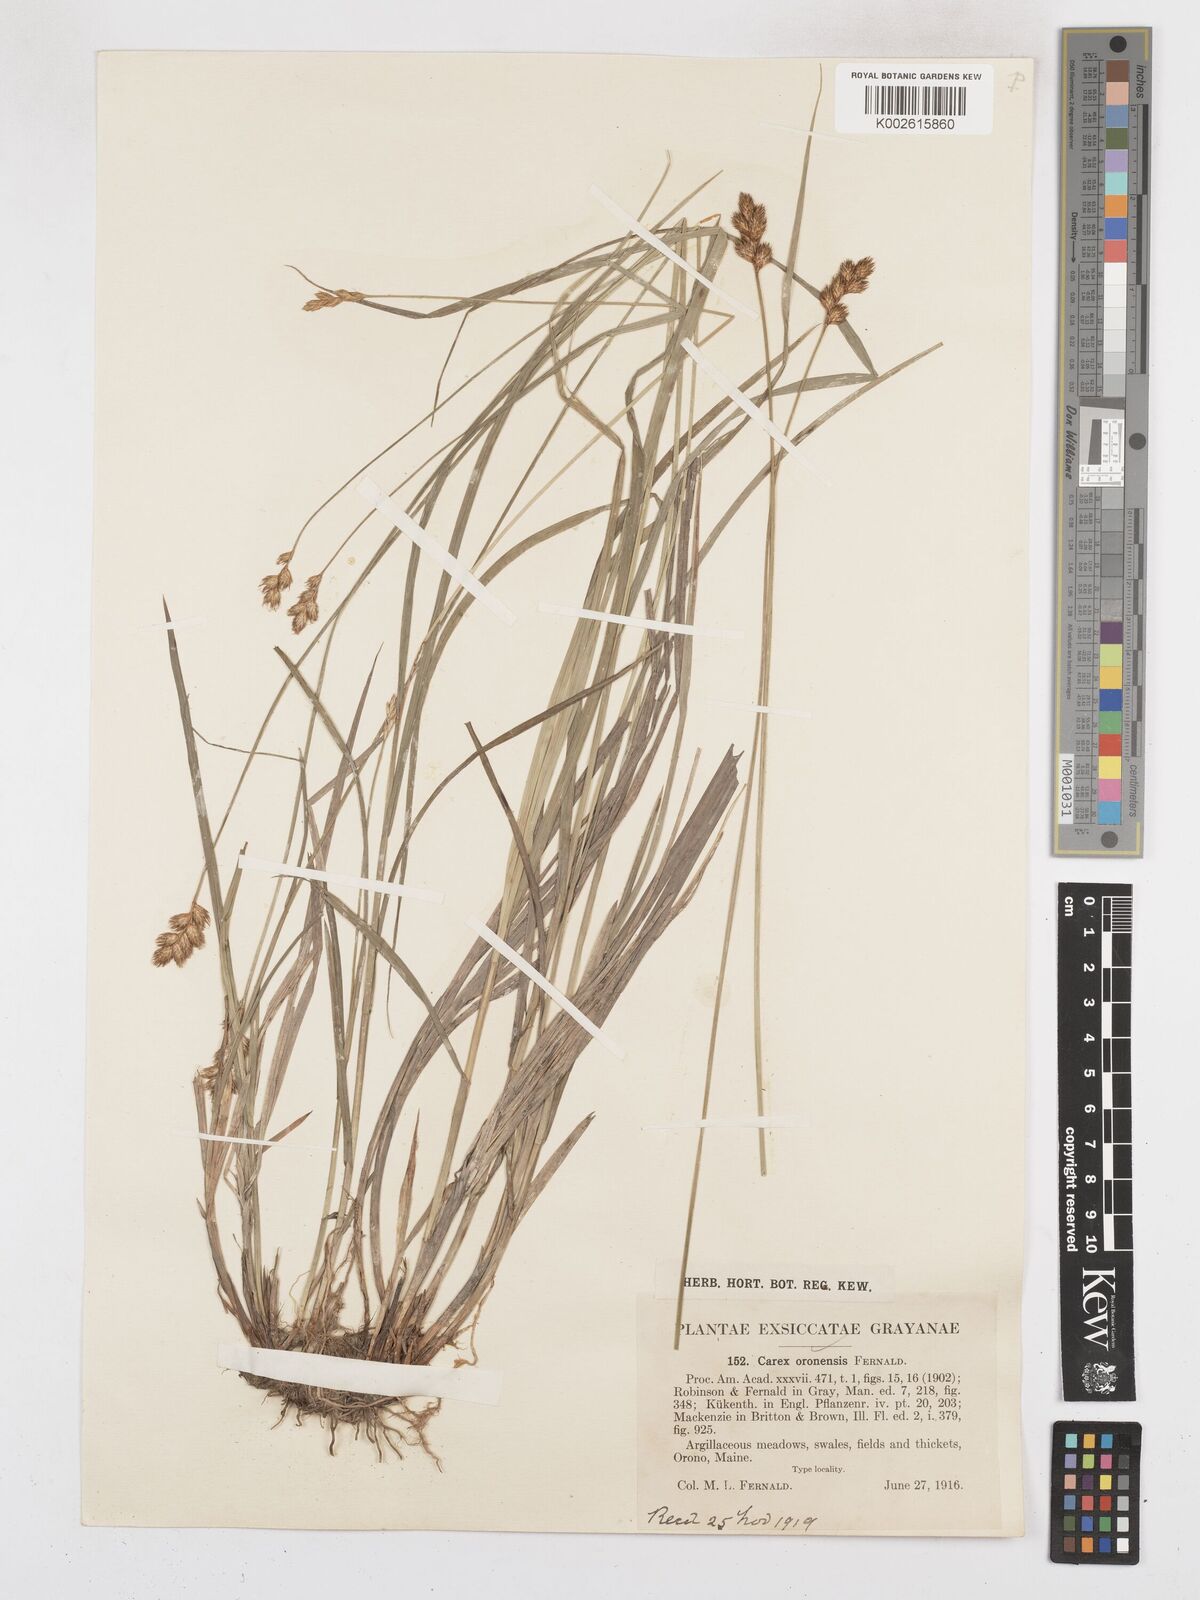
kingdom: Plantae
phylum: Tracheophyta
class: Liliopsida
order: Poales
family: Cyperaceae
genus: Carex
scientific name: Carex oronensis
